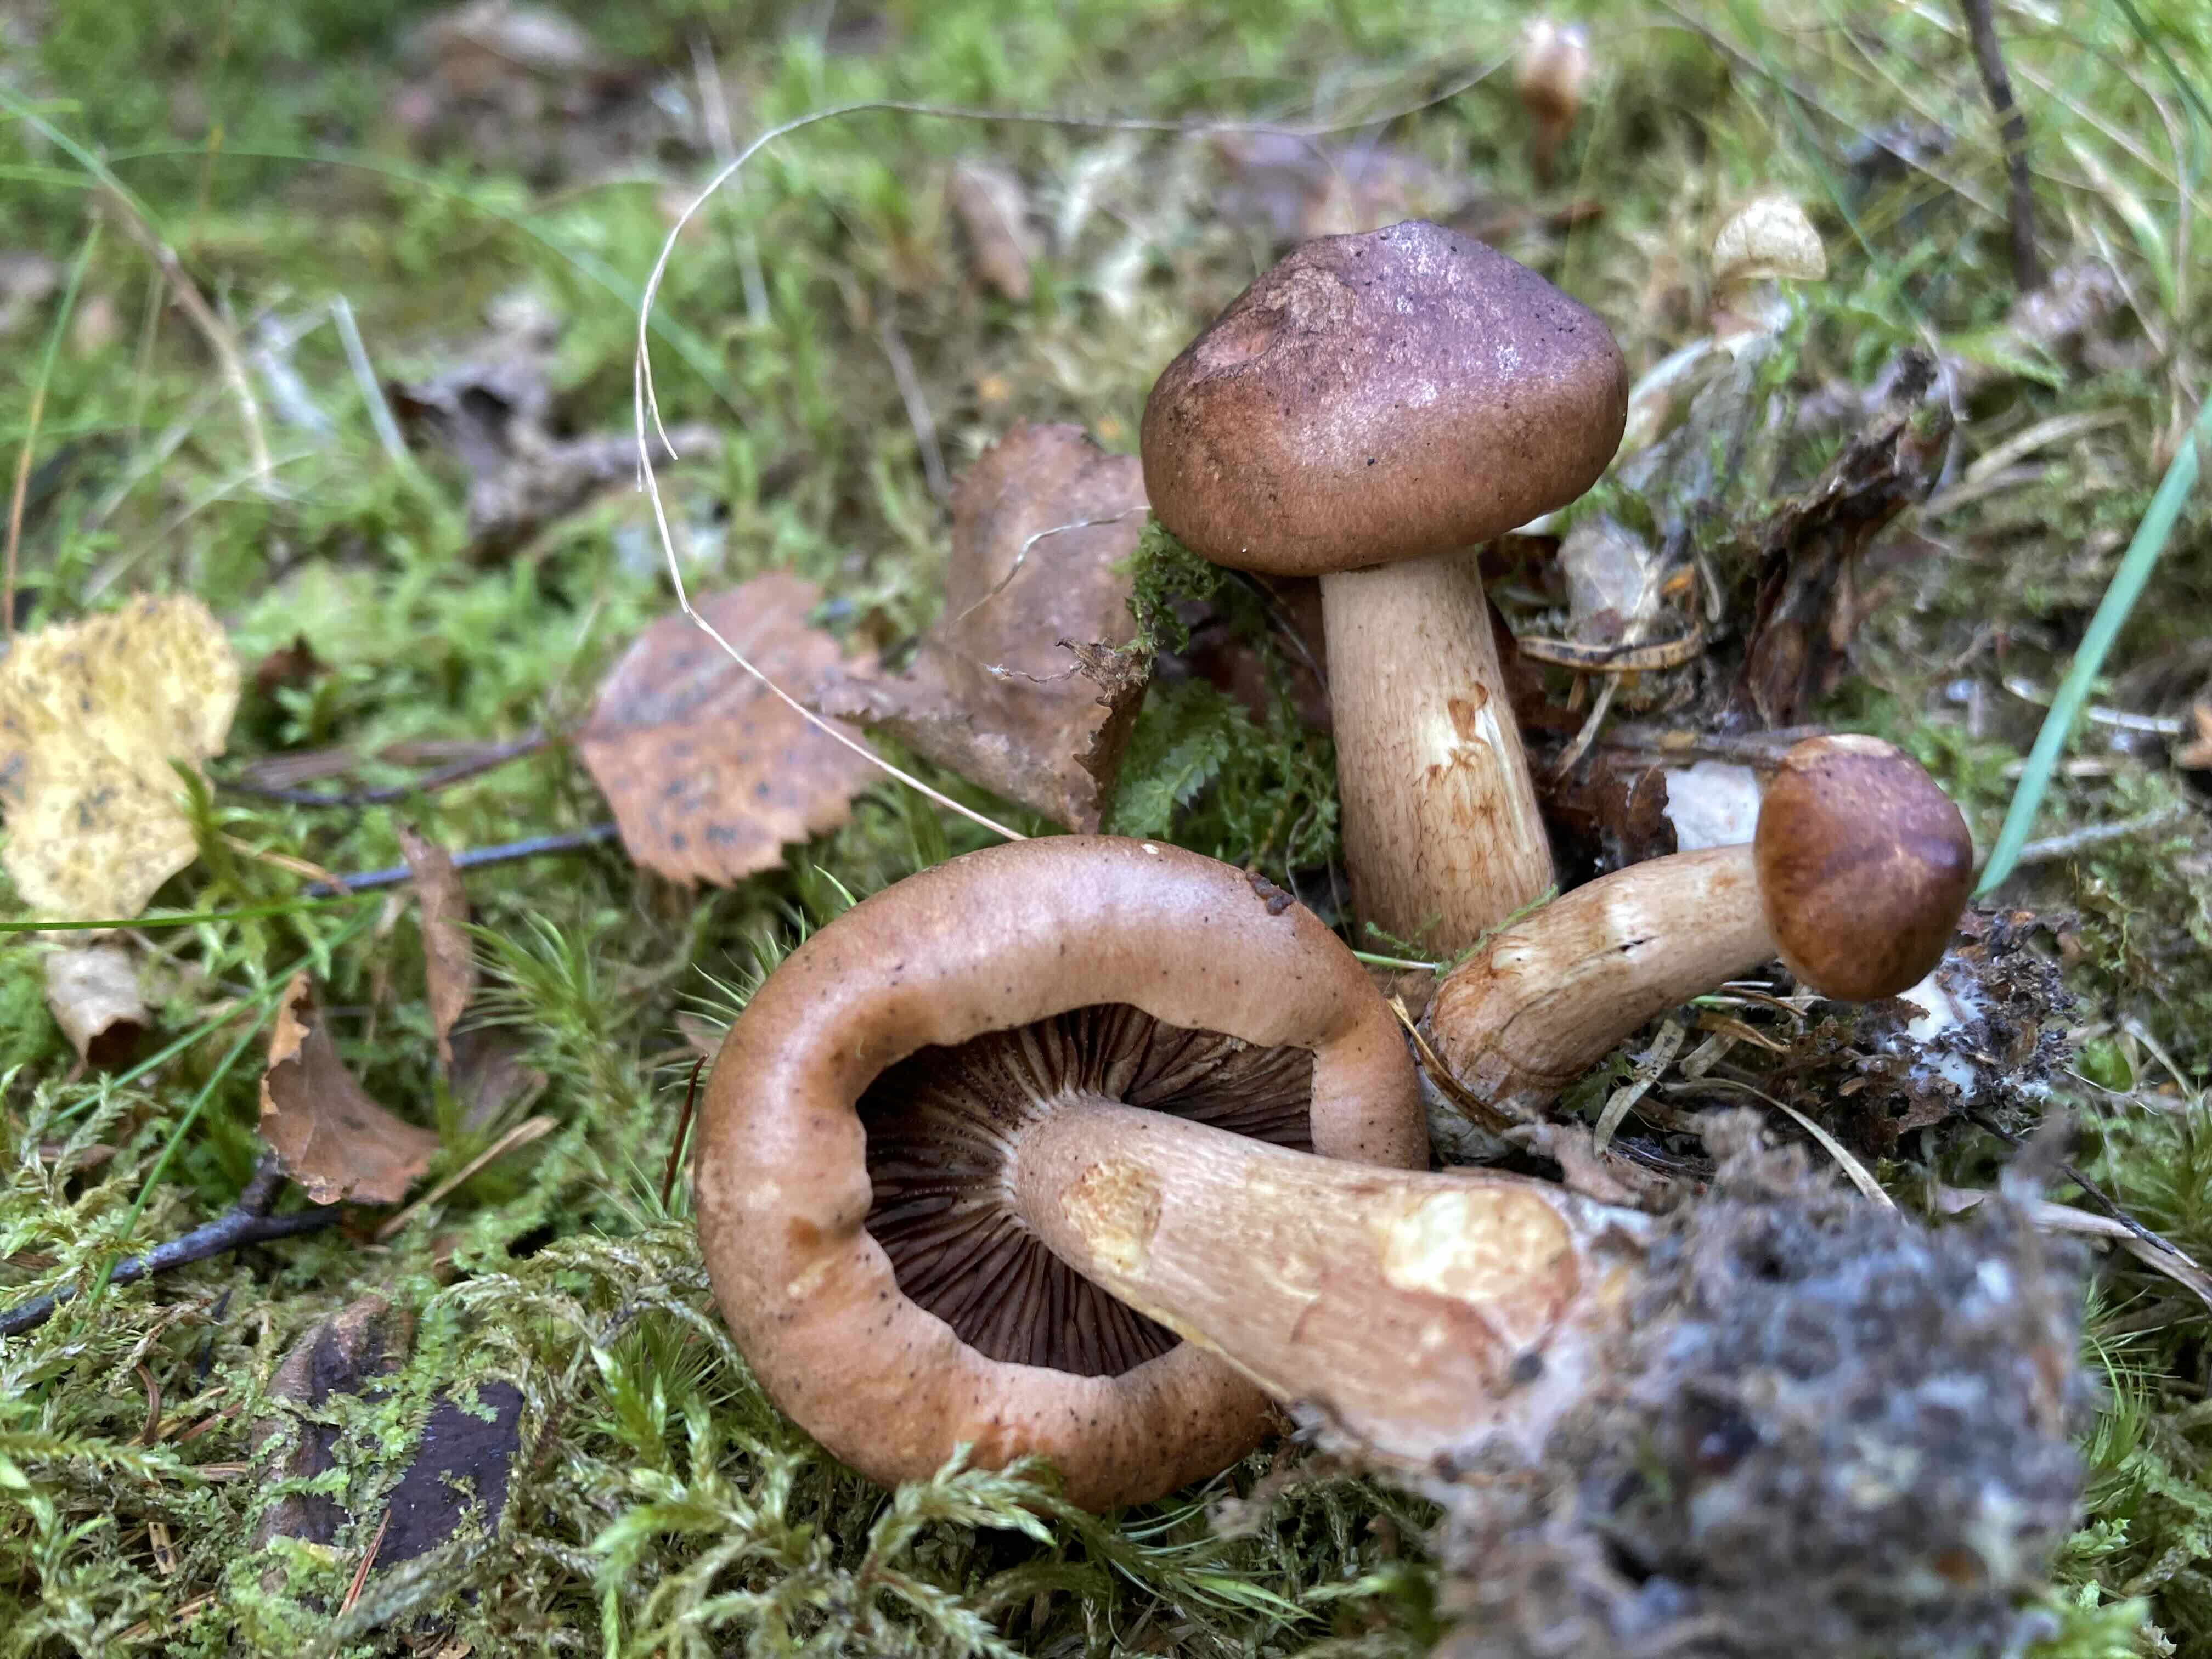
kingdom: Fungi
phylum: Basidiomycota
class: Agaricomycetes
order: Agaricales
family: Tricholomataceae
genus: Tricholoma
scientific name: Tricholoma fulvum
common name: birke-ridderhat
